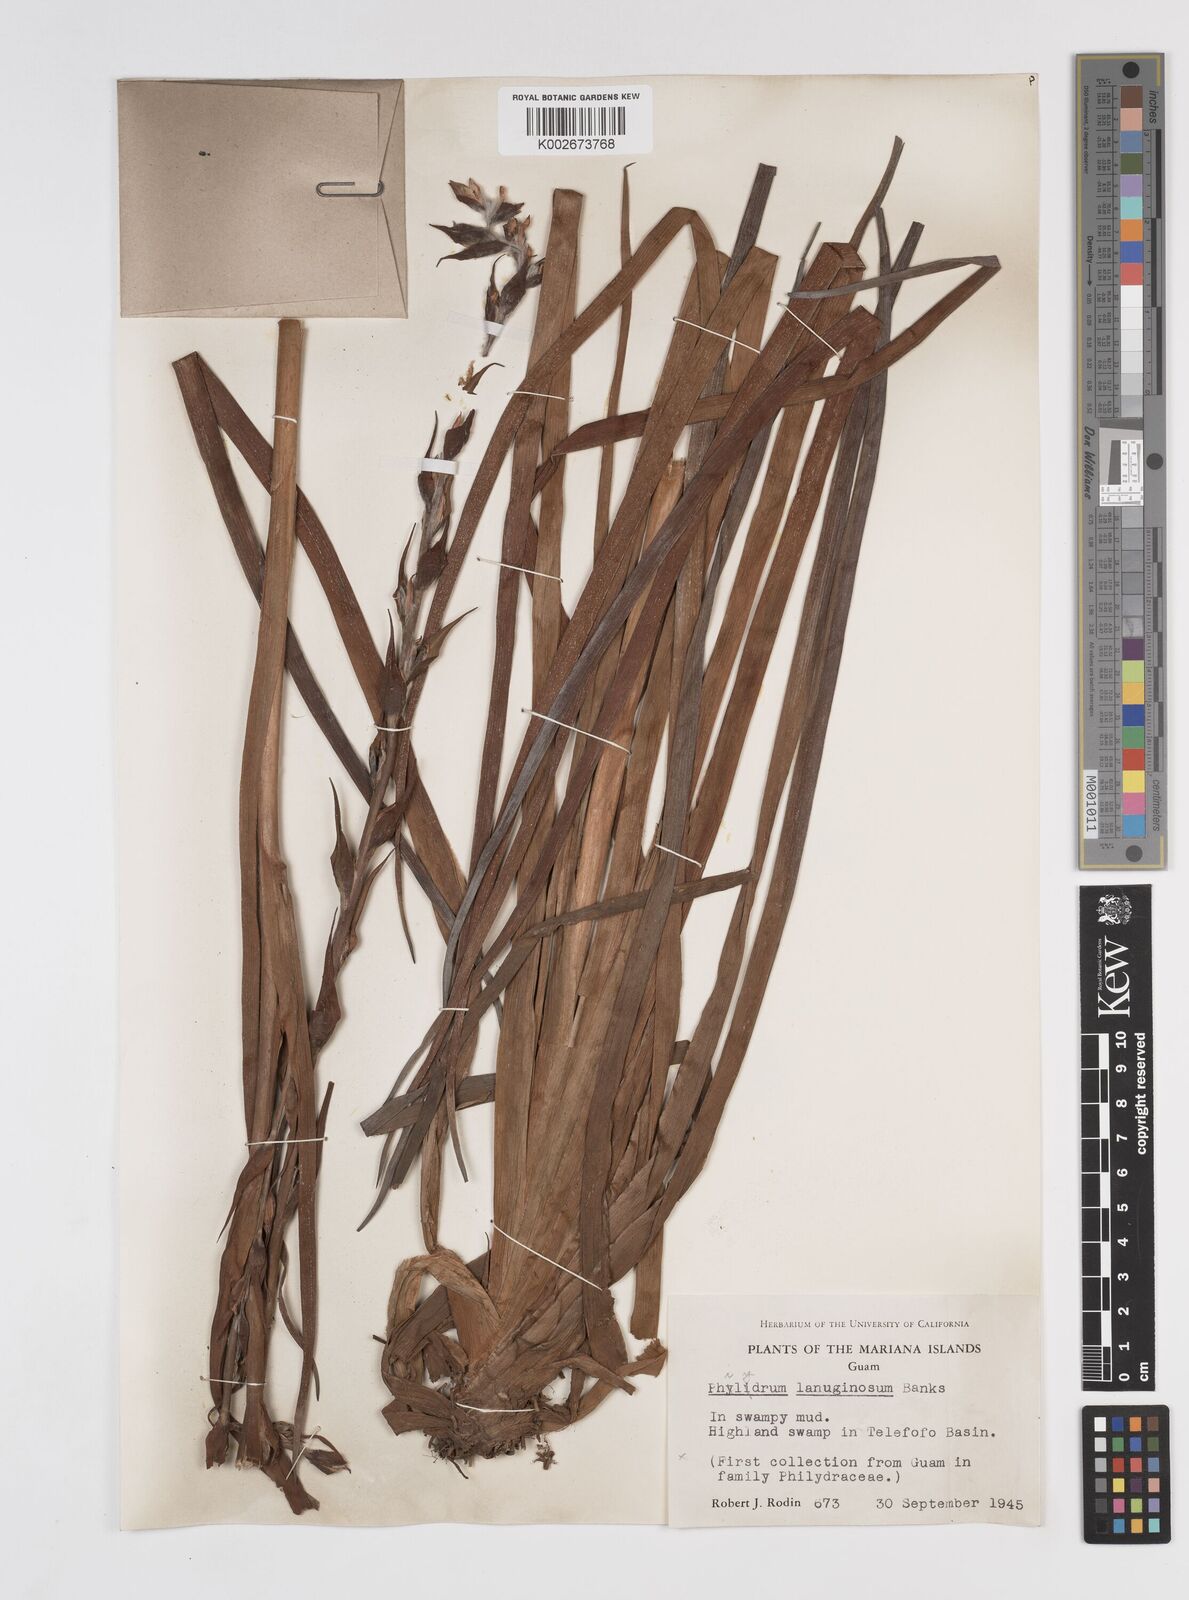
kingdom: Plantae
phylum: Tracheophyta
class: Liliopsida
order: Commelinales
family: Philydraceae
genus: Philydrum
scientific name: Philydrum lanuginosum
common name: Woolly frog's mouth
